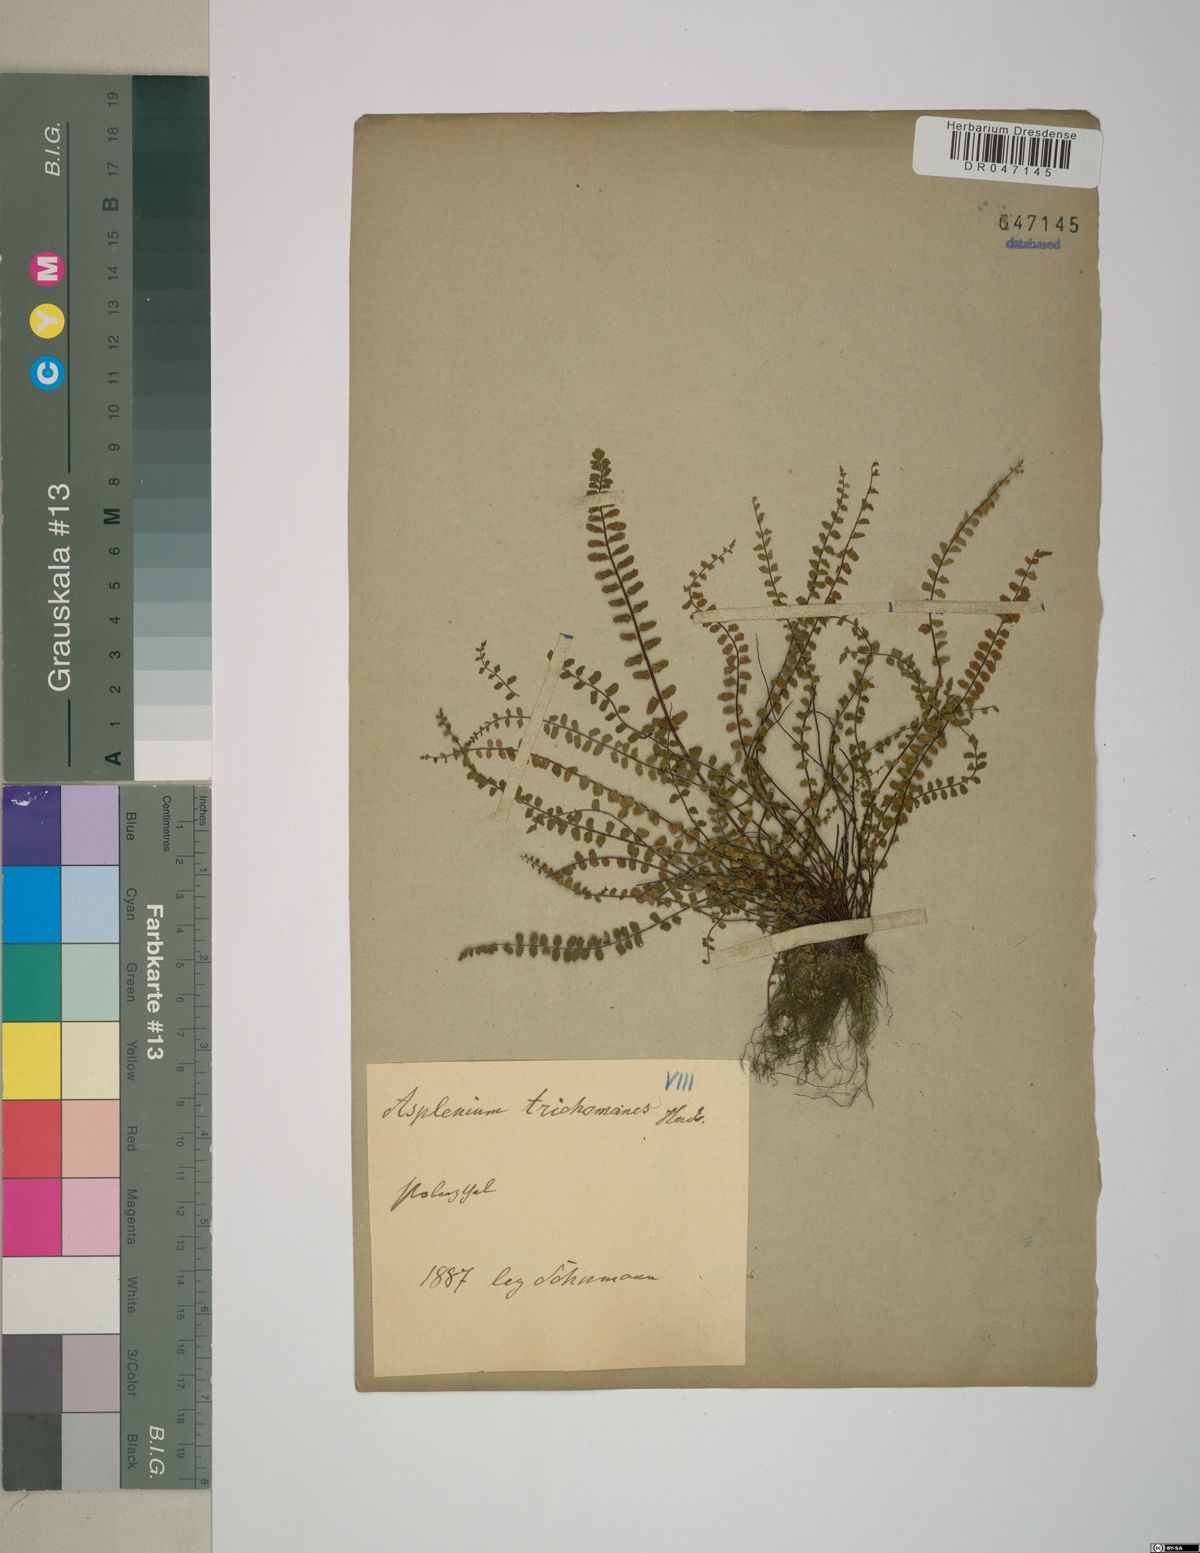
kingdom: Plantae
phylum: Tracheophyta
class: Polypodiopsida
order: Polypodiales
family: Aspleniaceae
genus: Asplenium
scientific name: Asplenium trichomanes
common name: Maidenhair spleenwort
